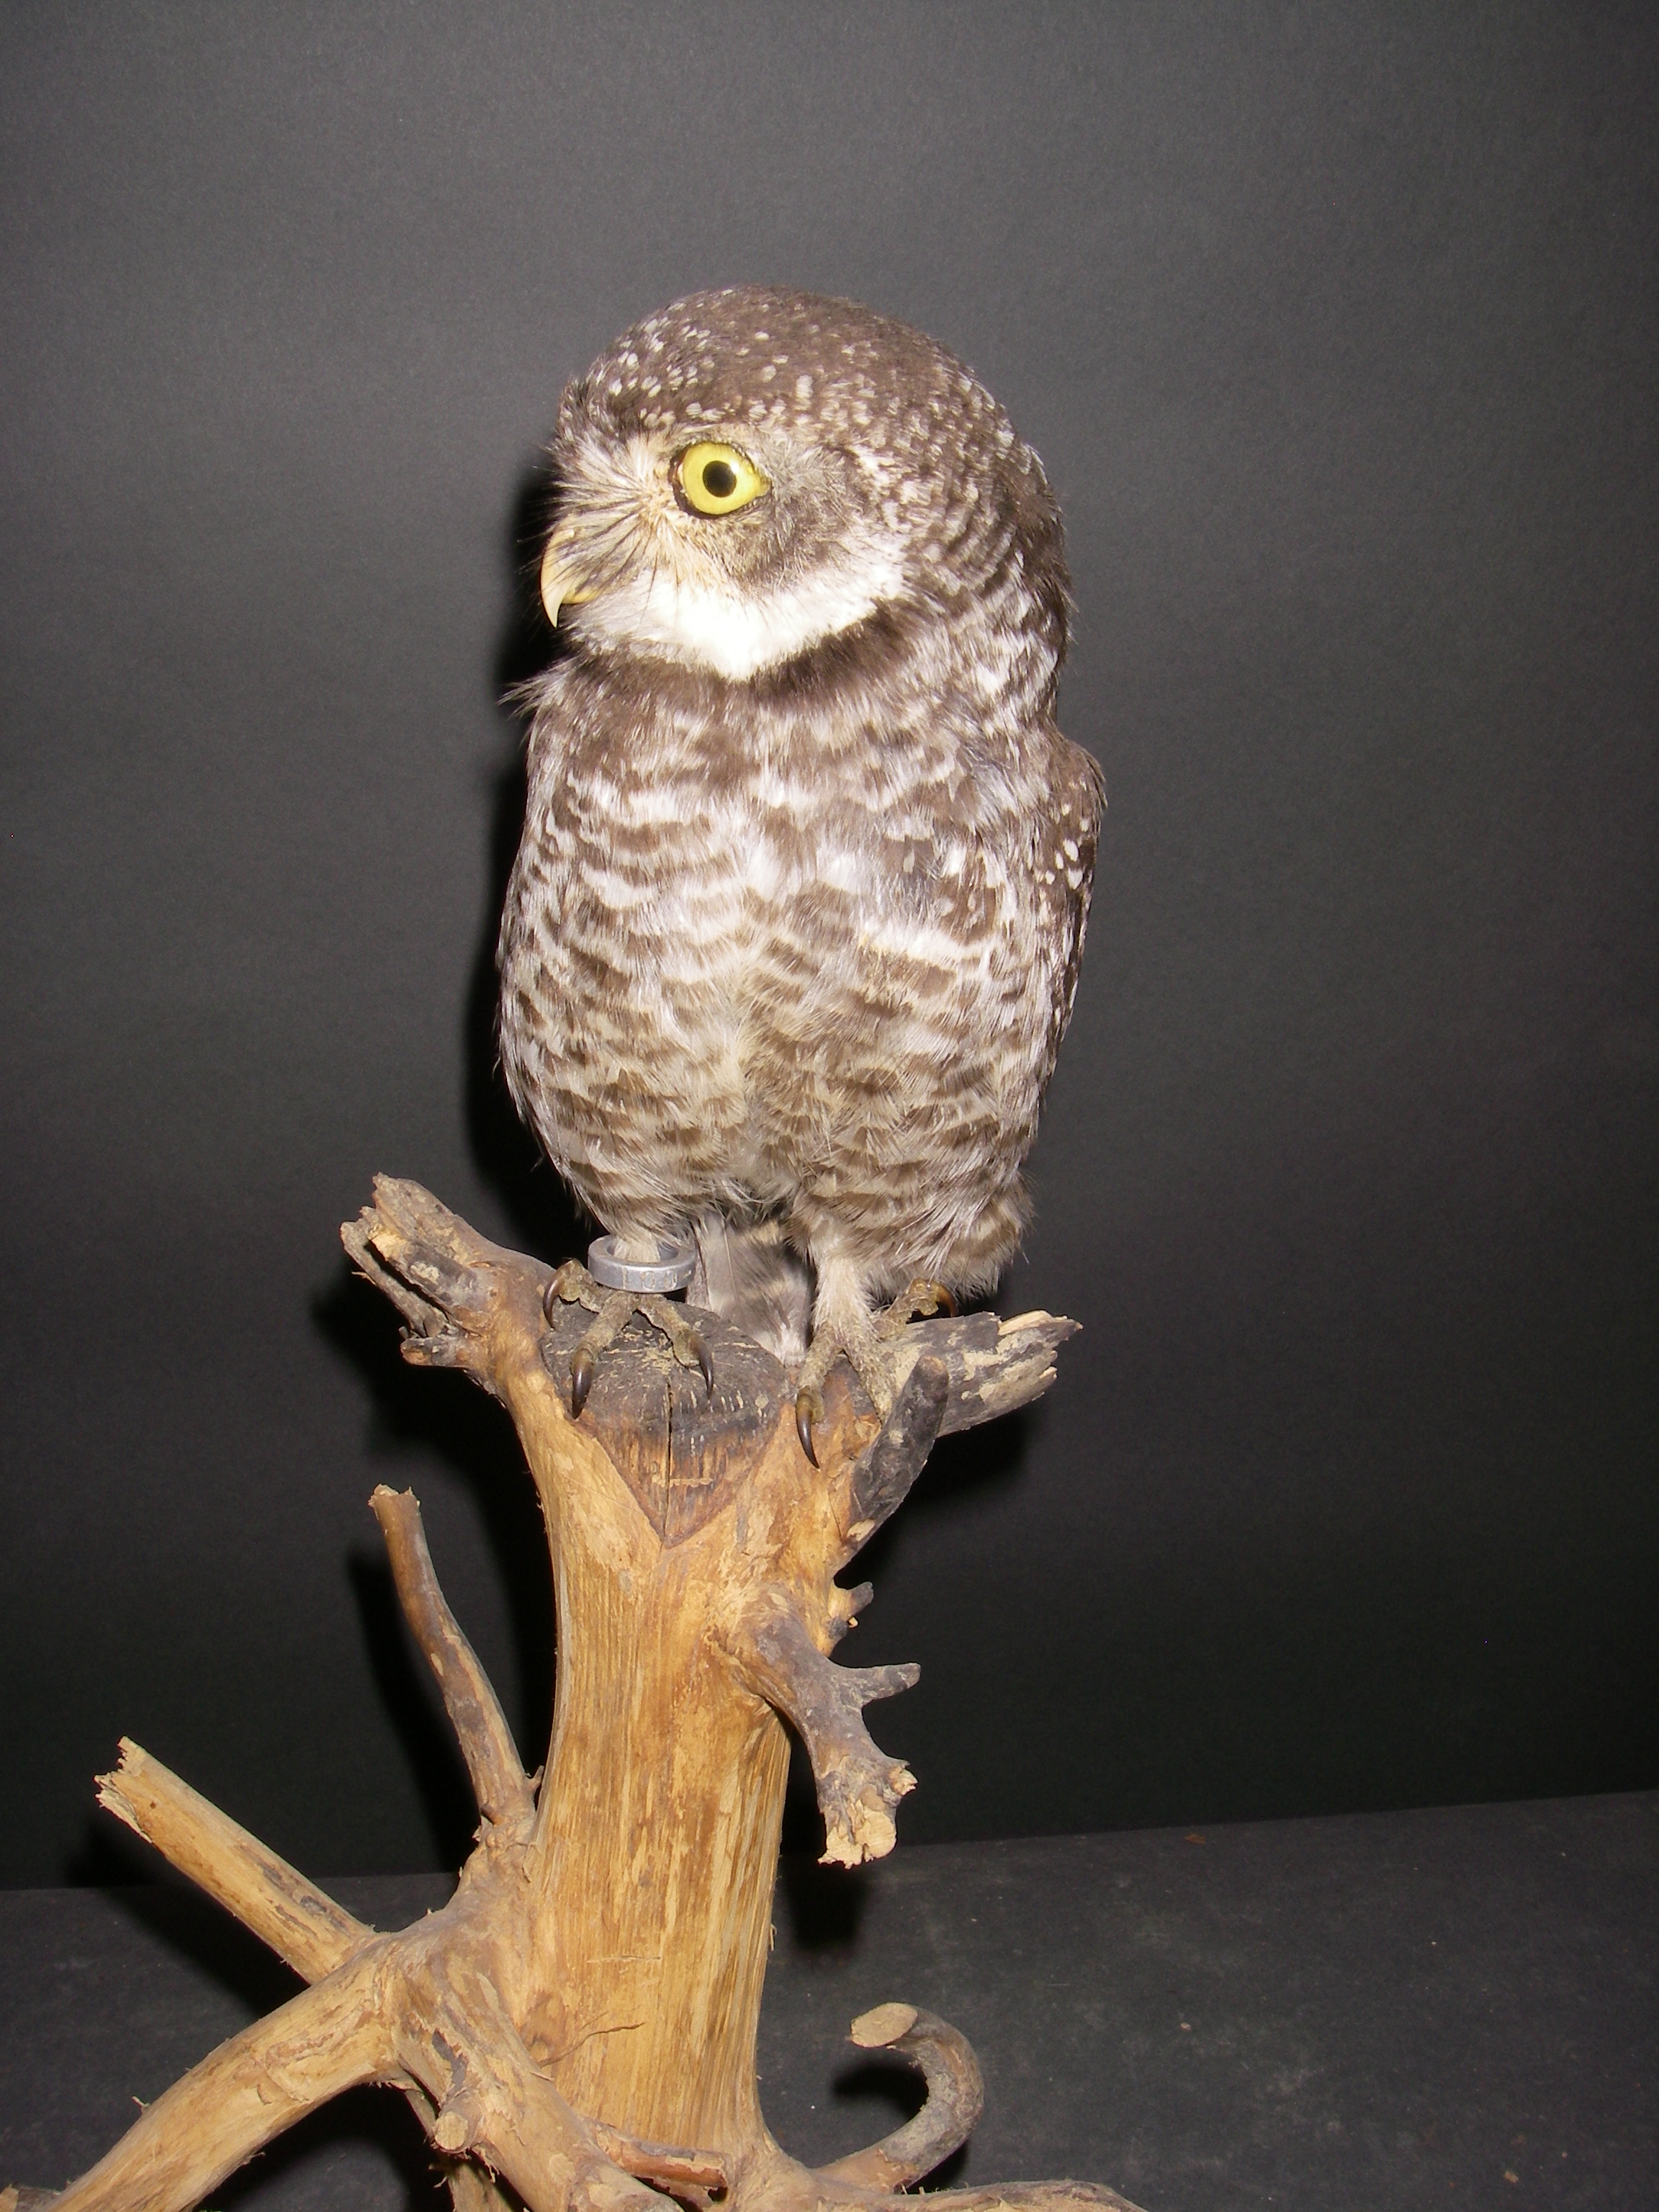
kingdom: Animalia
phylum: Chordata
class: Aves
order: Strigiformes
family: Strigidae
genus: Athene
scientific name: Athene brama
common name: Spotted owlet
